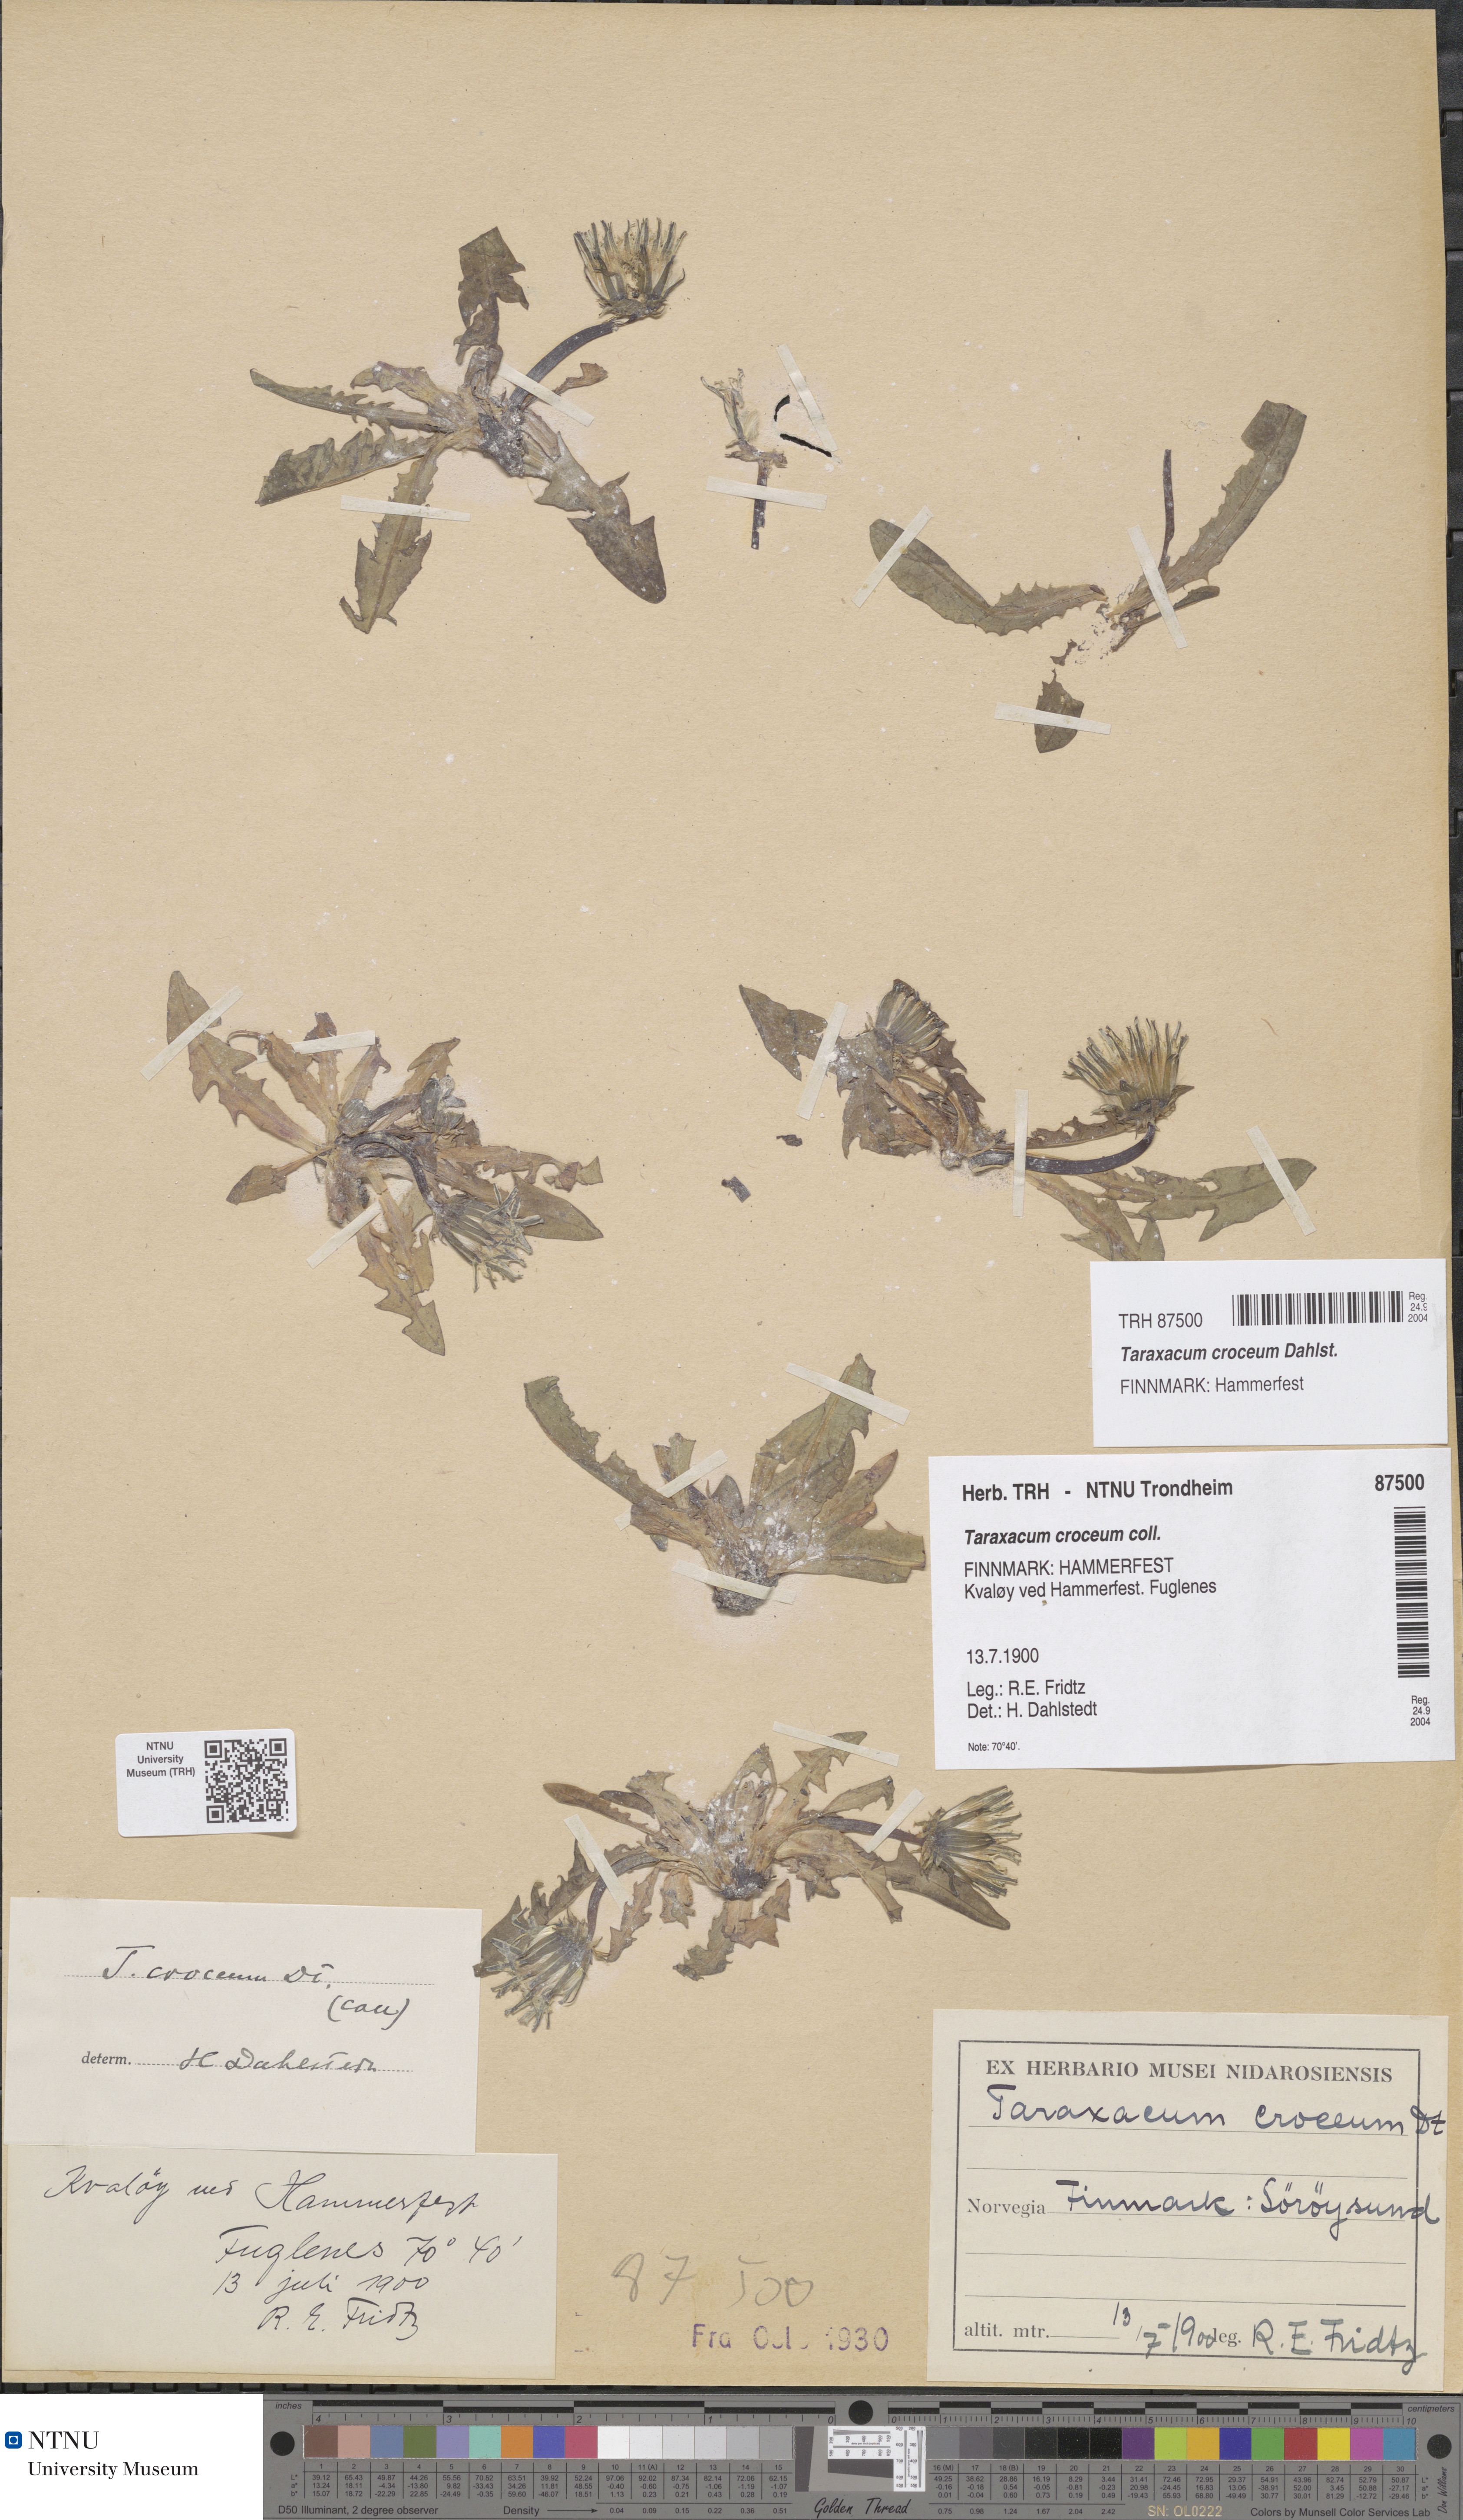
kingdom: Plantae
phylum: Tracheophyta
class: Magnoliopsida
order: Asterales
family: Asteraceae
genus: Taraxacum
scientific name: Taraxacum croceum
